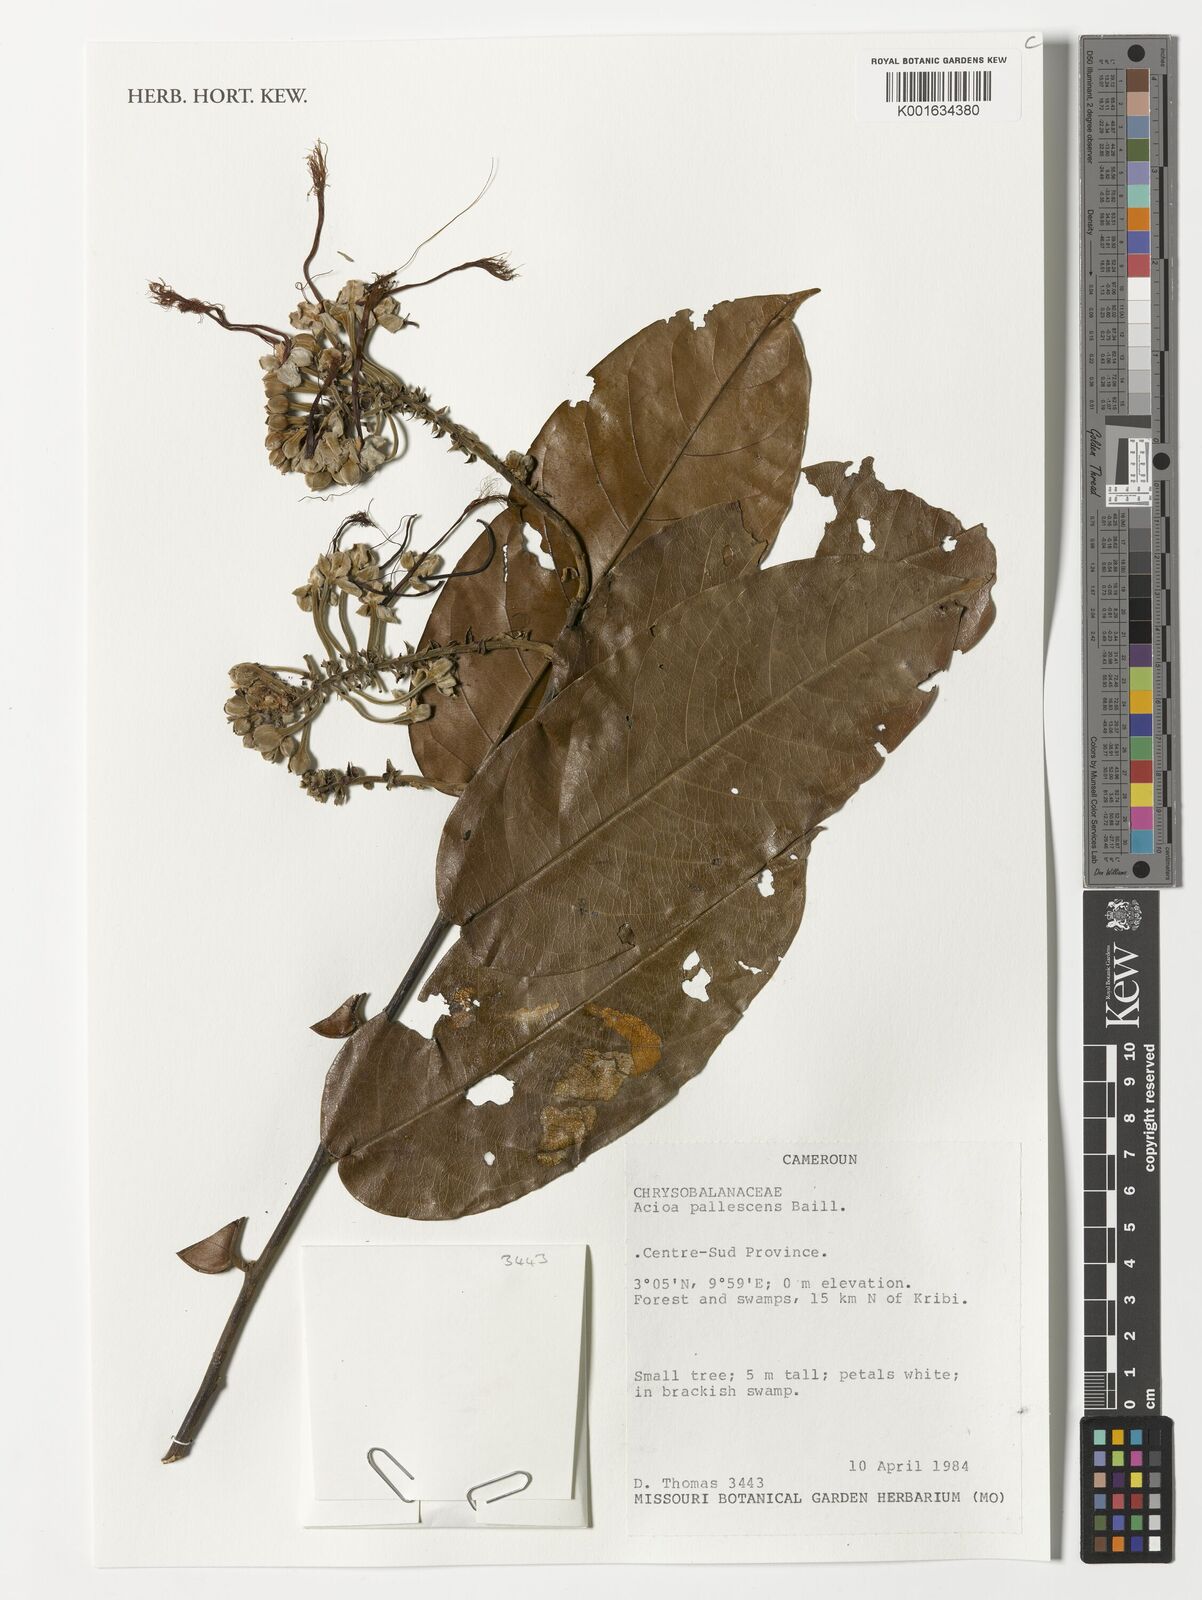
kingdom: Plantae
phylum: Tracheophyta
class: Magnoliopsida
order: Malpighiales
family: Chrysobalanaceae
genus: Dactyladenia
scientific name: Dactyladenia pallescens
